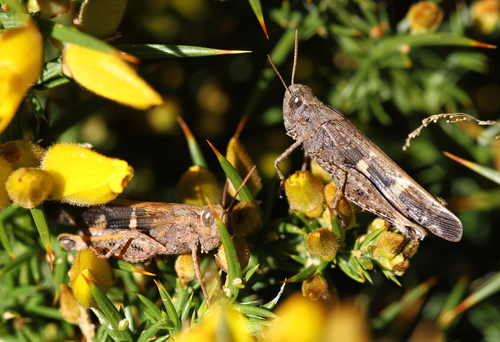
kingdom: Animalia
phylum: Arthropoda
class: Insecta
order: Orthoptera
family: Acrididae
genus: Calliptamus
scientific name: Calliptamus madeirae
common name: Madeira pincer grasshopper
